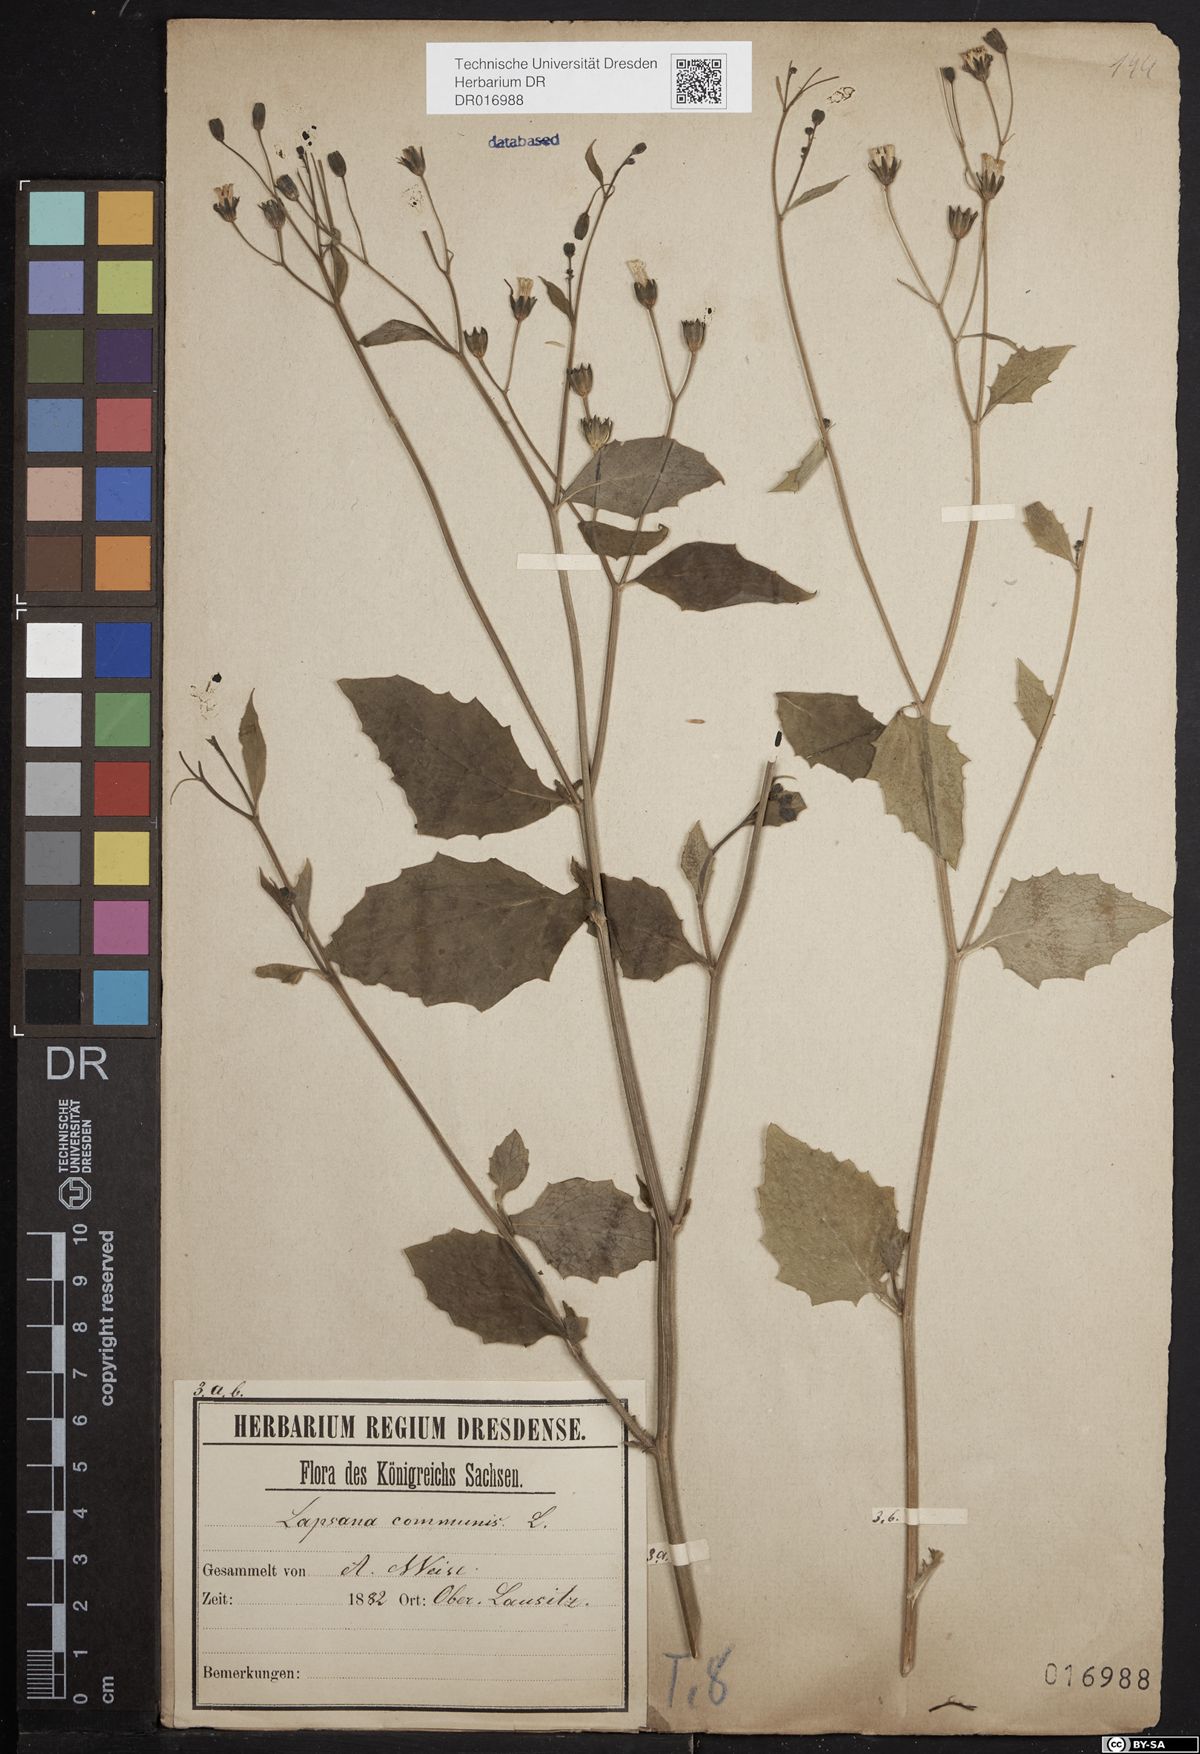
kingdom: Plantae
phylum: Tracheophyta
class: Magnoliopsida
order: Asterales
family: Asteraceae
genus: Lapsana
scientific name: Lapsana communis
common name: Nipplewort
